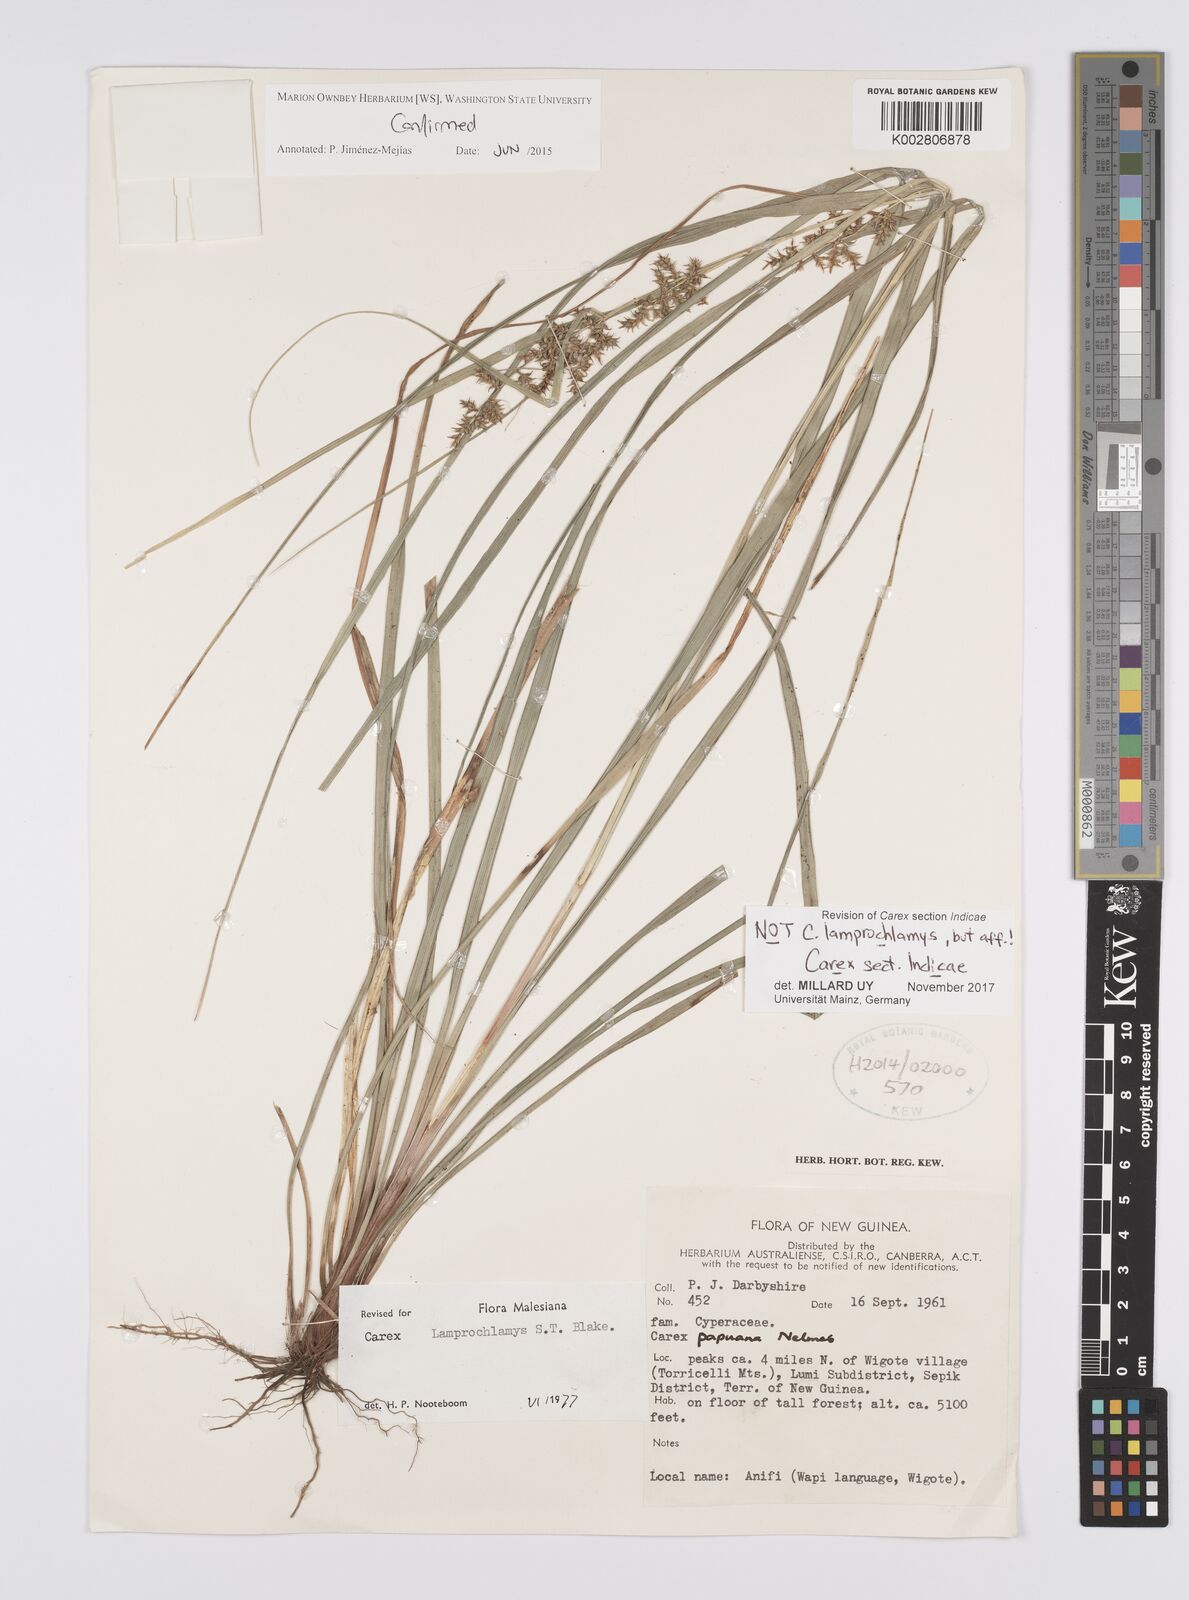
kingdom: Plantae
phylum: Tracheophyta
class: Liliopsida
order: Poales
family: Cyperaceae
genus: Carex
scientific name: Carex lamprochlamys
